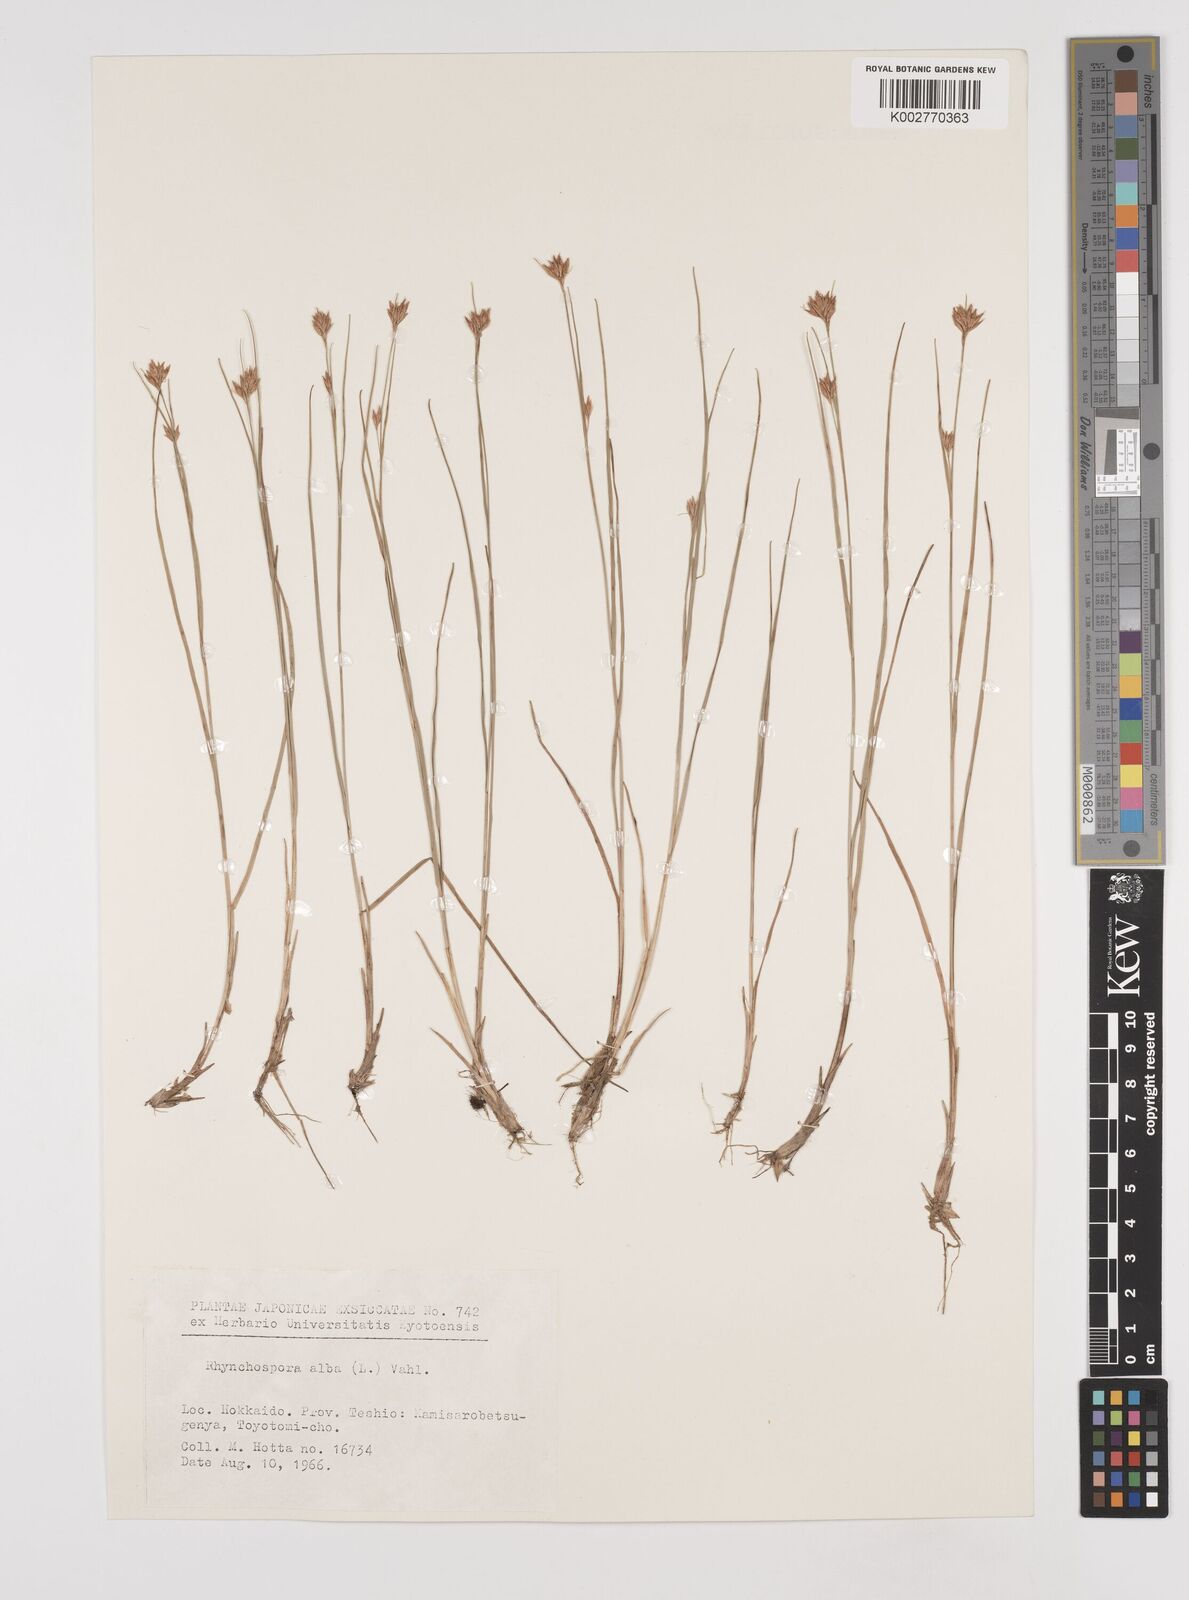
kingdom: Plantae
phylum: Tracheophyta
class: Liliopsida
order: Poales
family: Cyperaceae
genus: Rhynchospora
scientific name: Rhynchospora alba
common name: White beak-sedge
